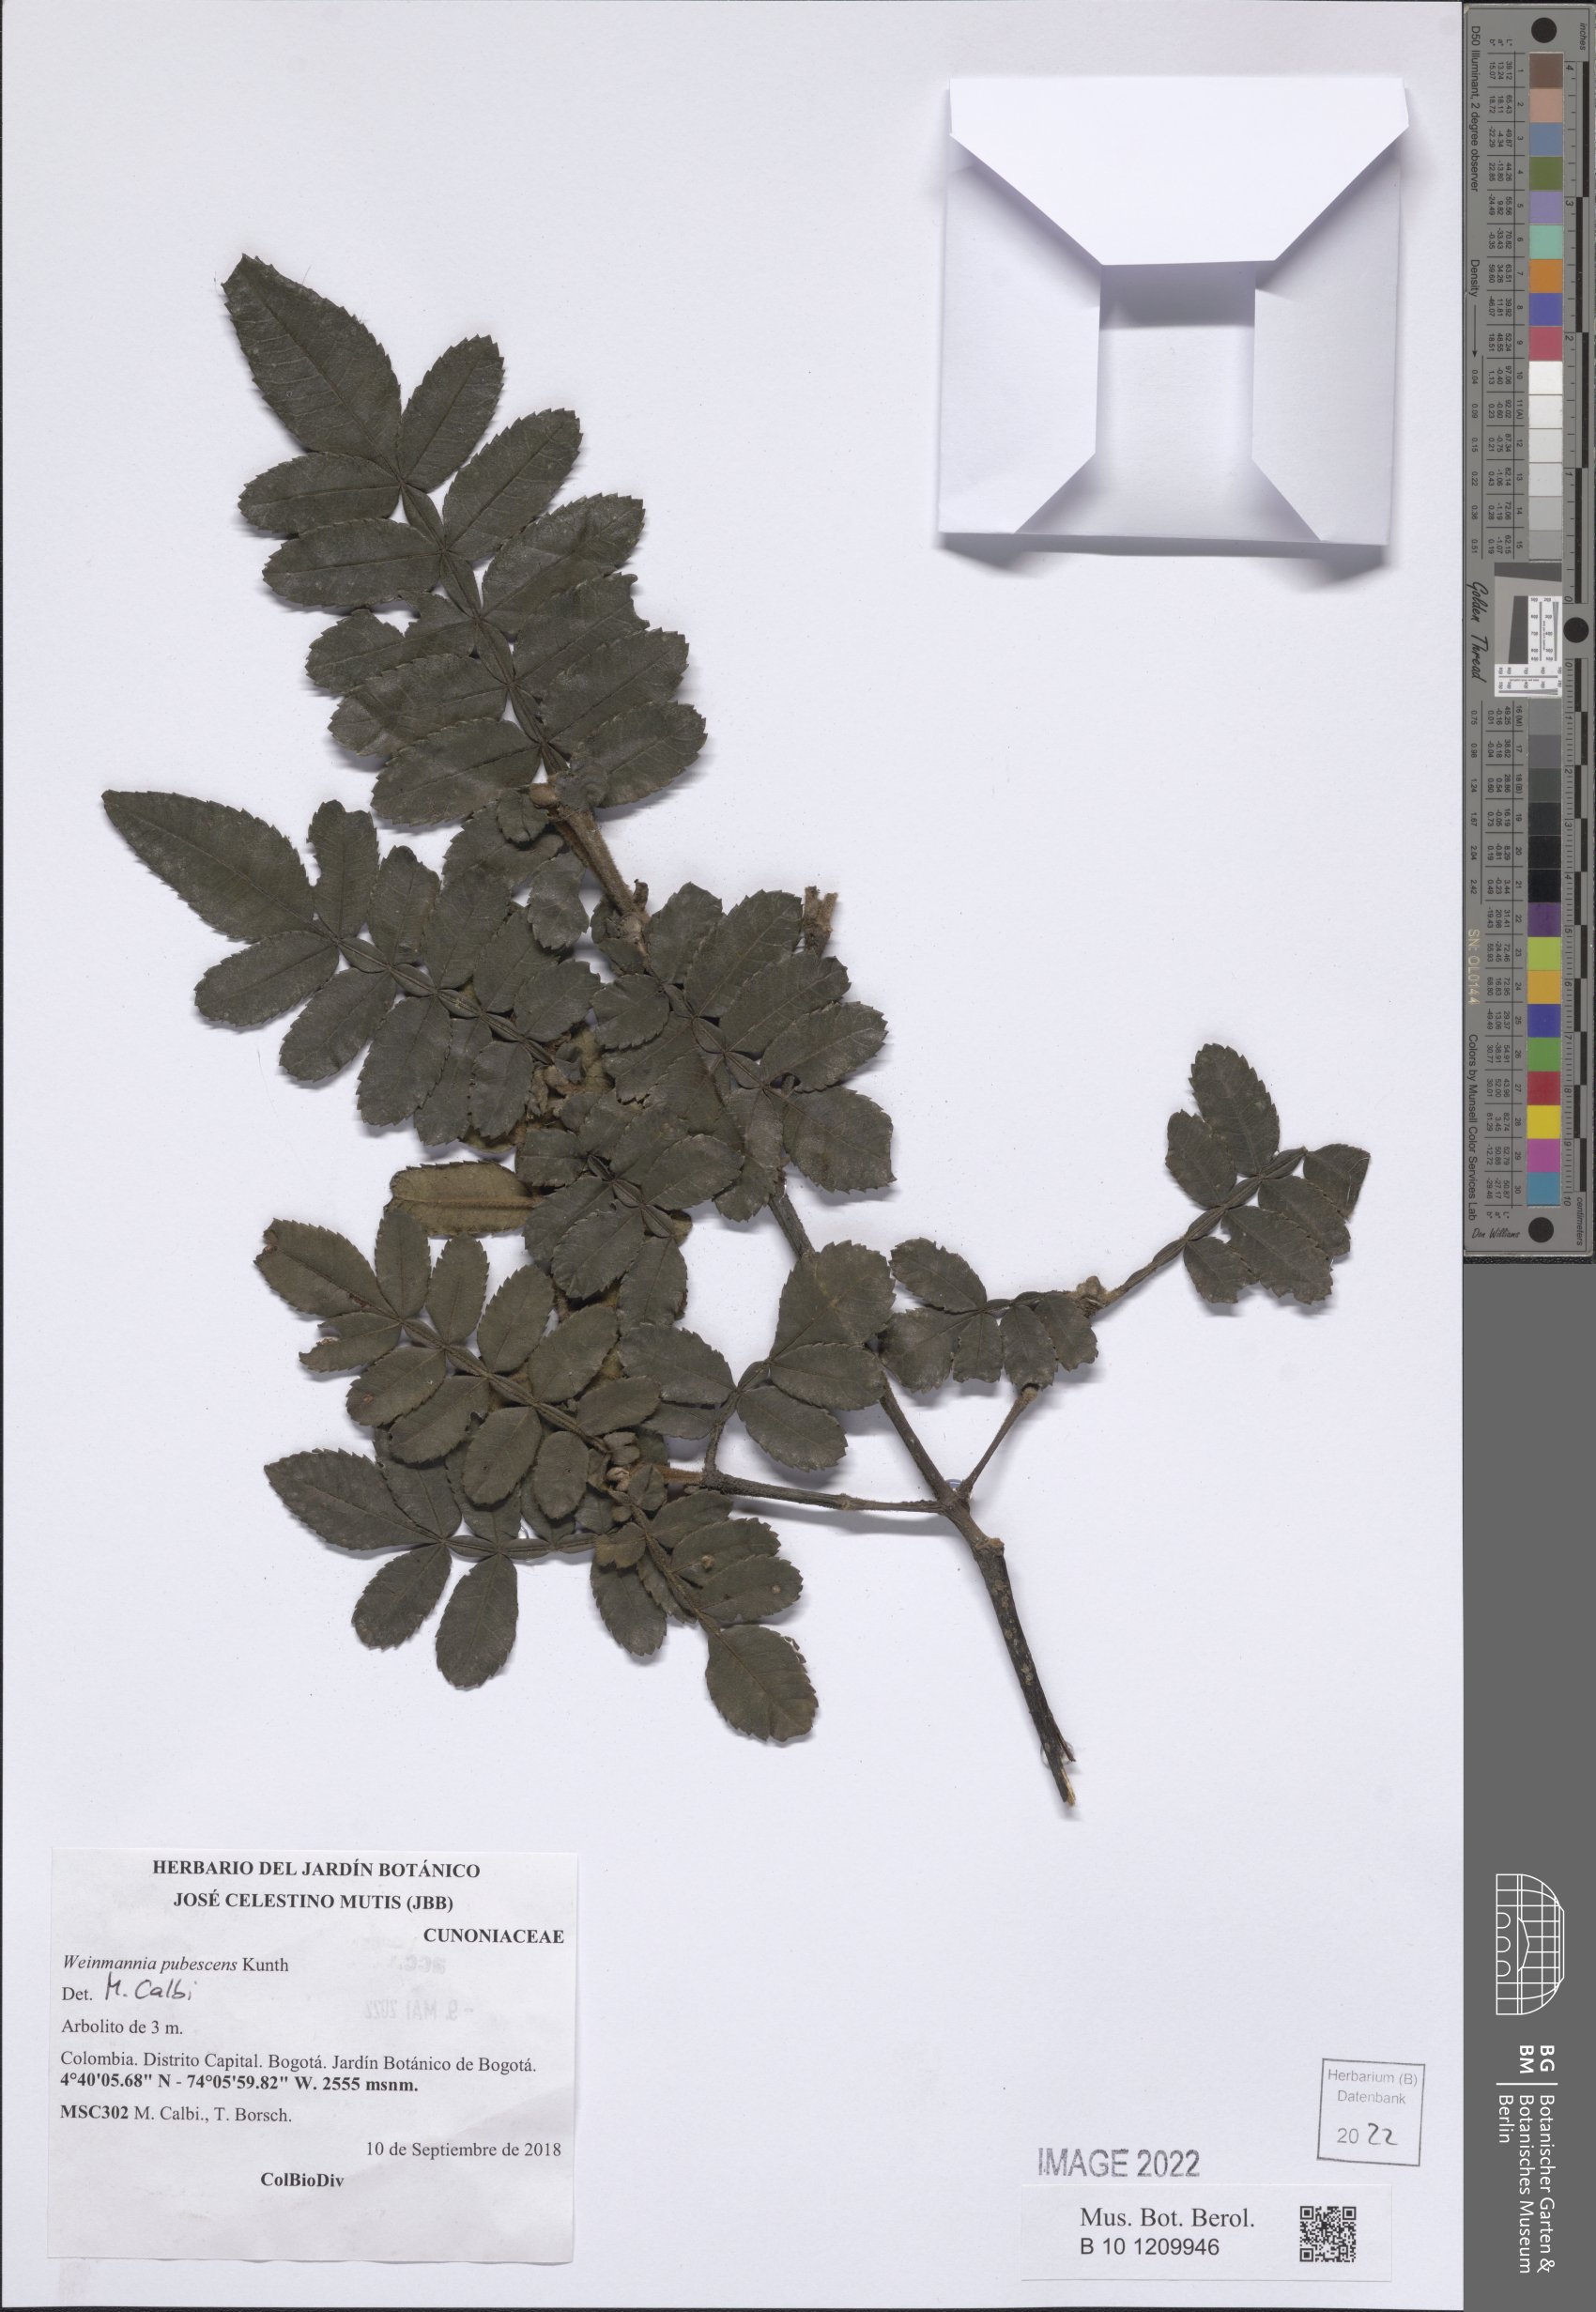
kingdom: Plantae
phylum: Tracheophyta
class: Magnoliopsida
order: Oxalidales
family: Cunoniaceae
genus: Weinmannia
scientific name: Weinmannia pubescens
